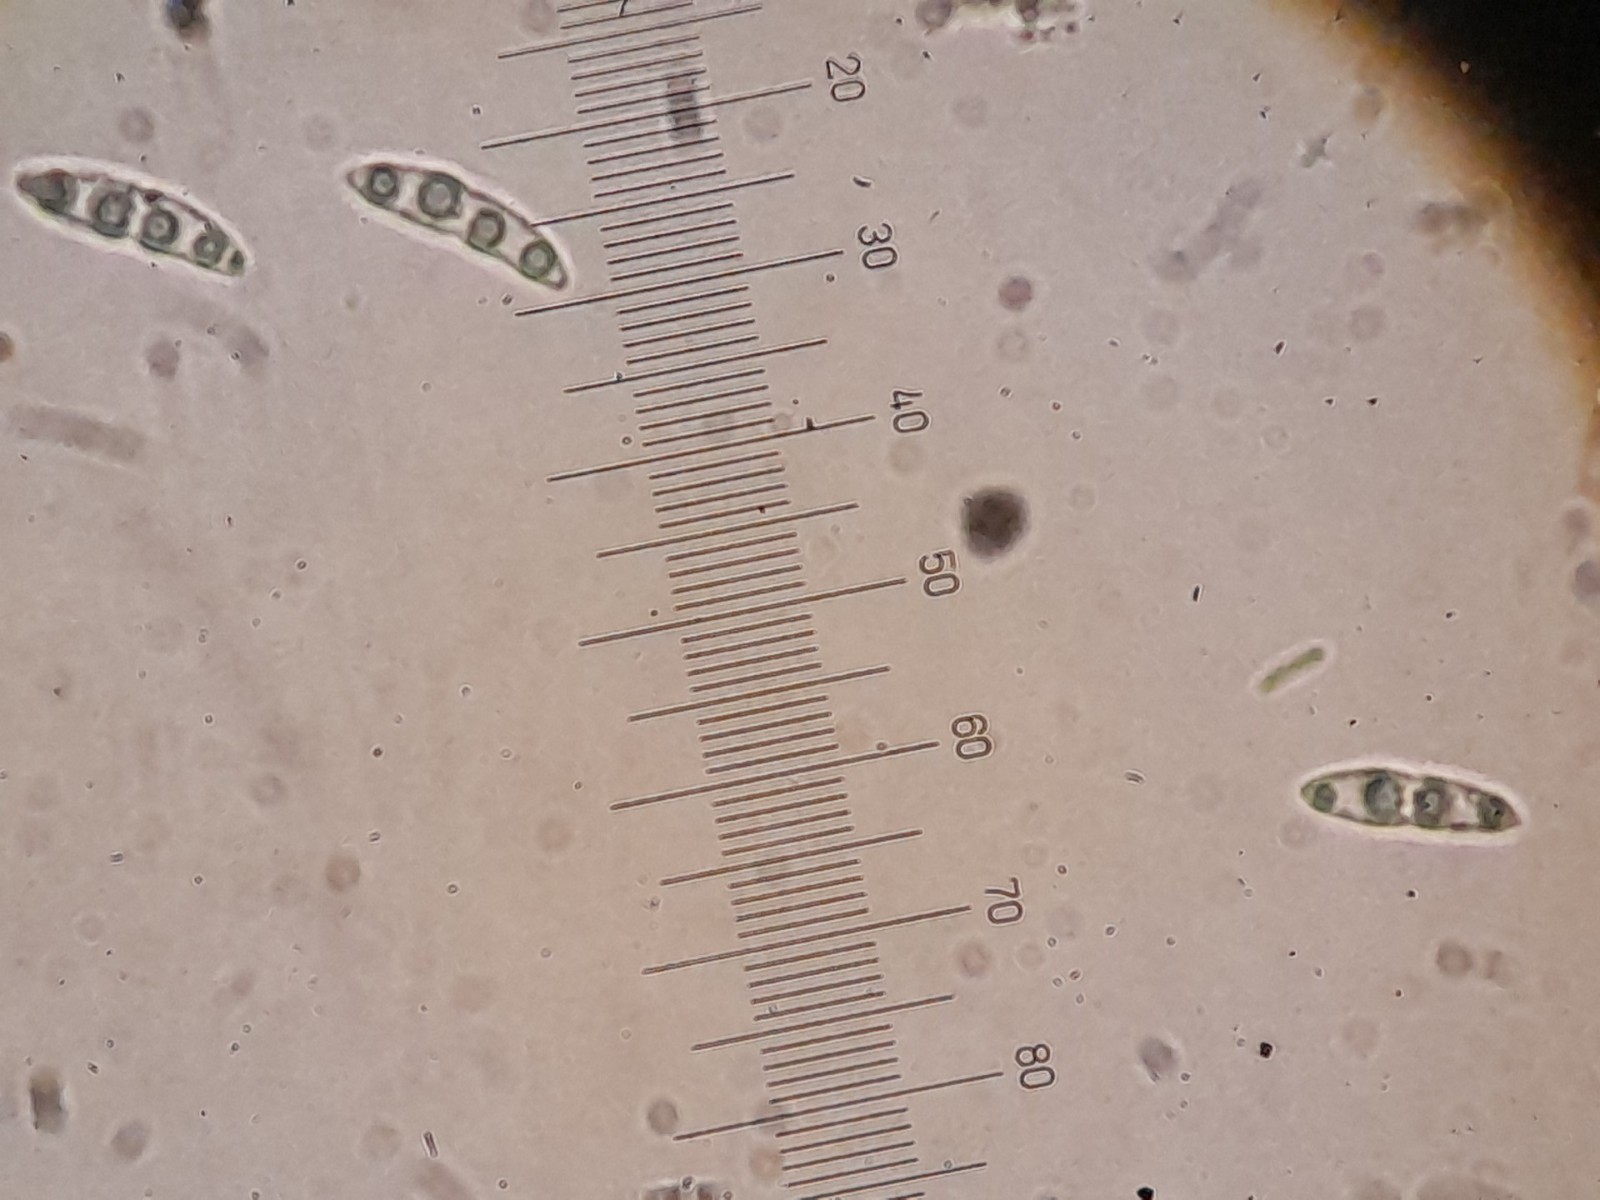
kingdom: Fungi
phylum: Ascomycota
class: Sordariomycetes
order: Diaporthales
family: Diaporthaceae
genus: Diaporthe
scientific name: Diaporthe strumella
